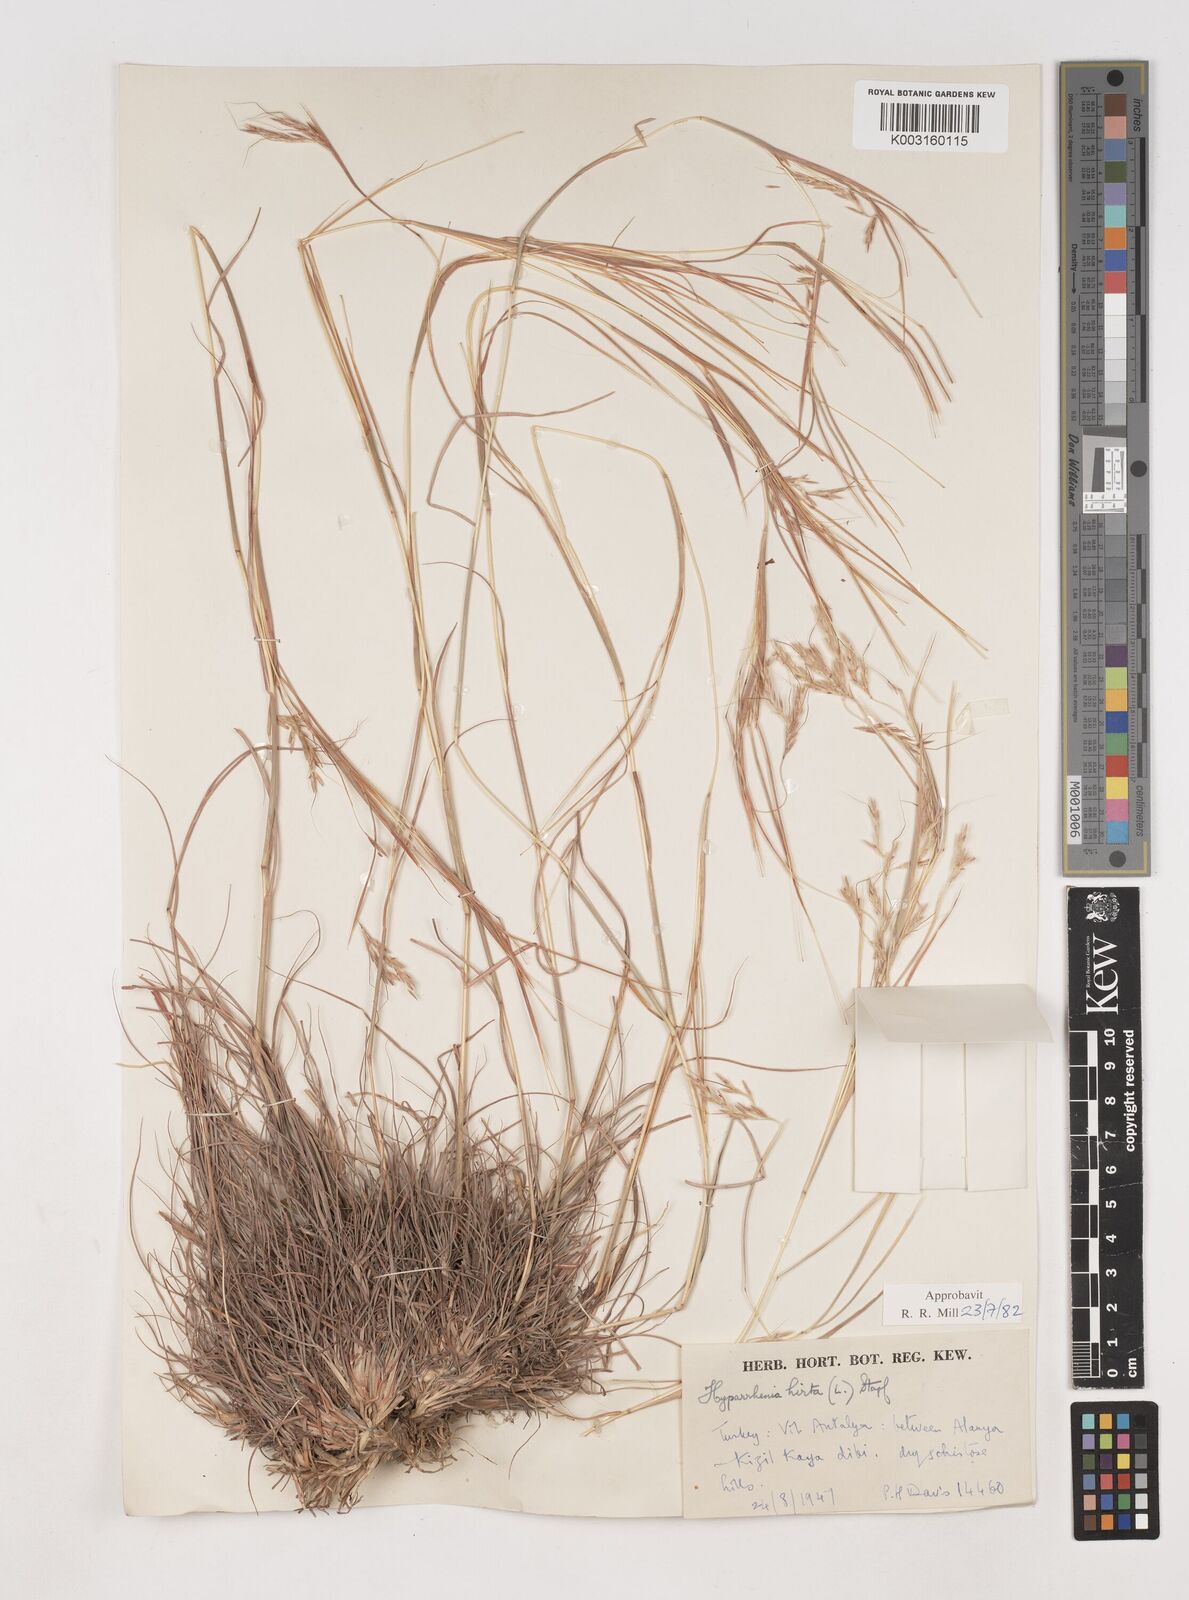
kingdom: Plantae
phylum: Tracheophyta
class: Liliopsida
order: Poales
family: Poaceae
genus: Hyparrhenia
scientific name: Hyparrhenia hirta
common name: Thatching grass
